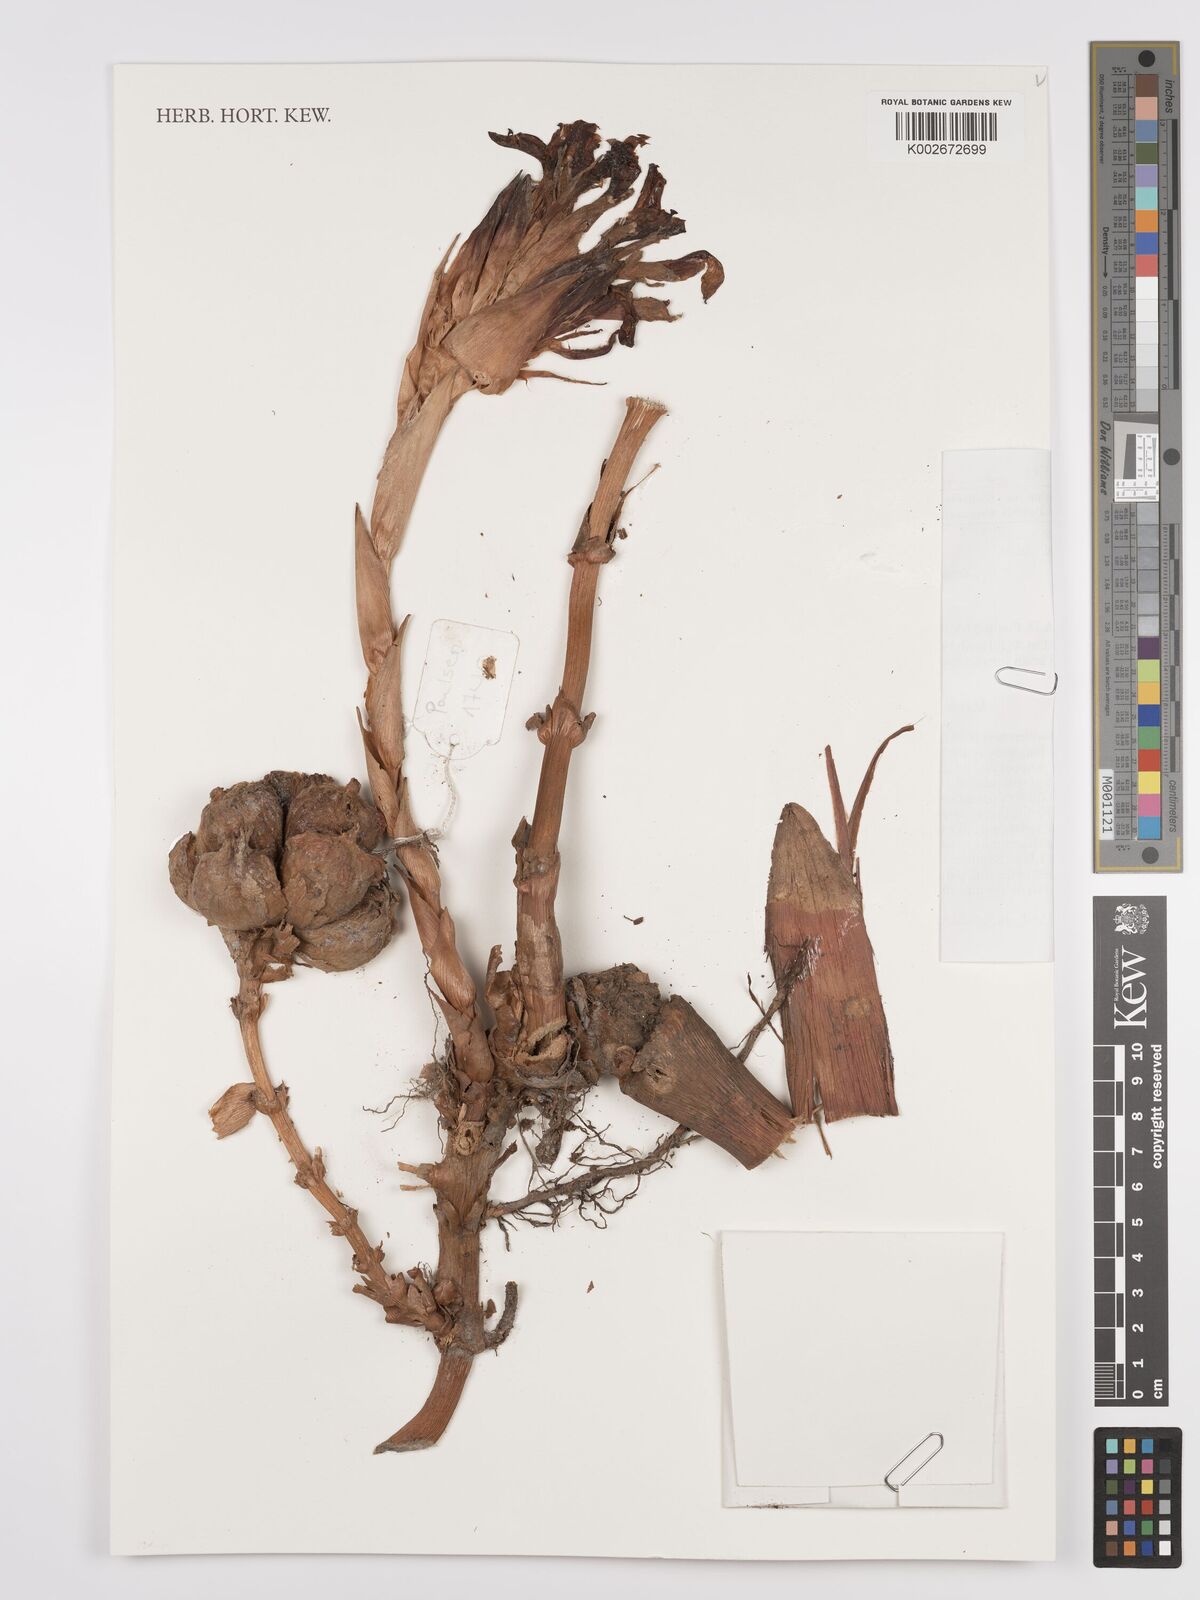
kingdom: Plantae
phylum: Tracheophyta
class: Liliopsida
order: Zingiberales
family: Zingiberaceae
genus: Etlingera
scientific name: Etlingera metriocheilos
